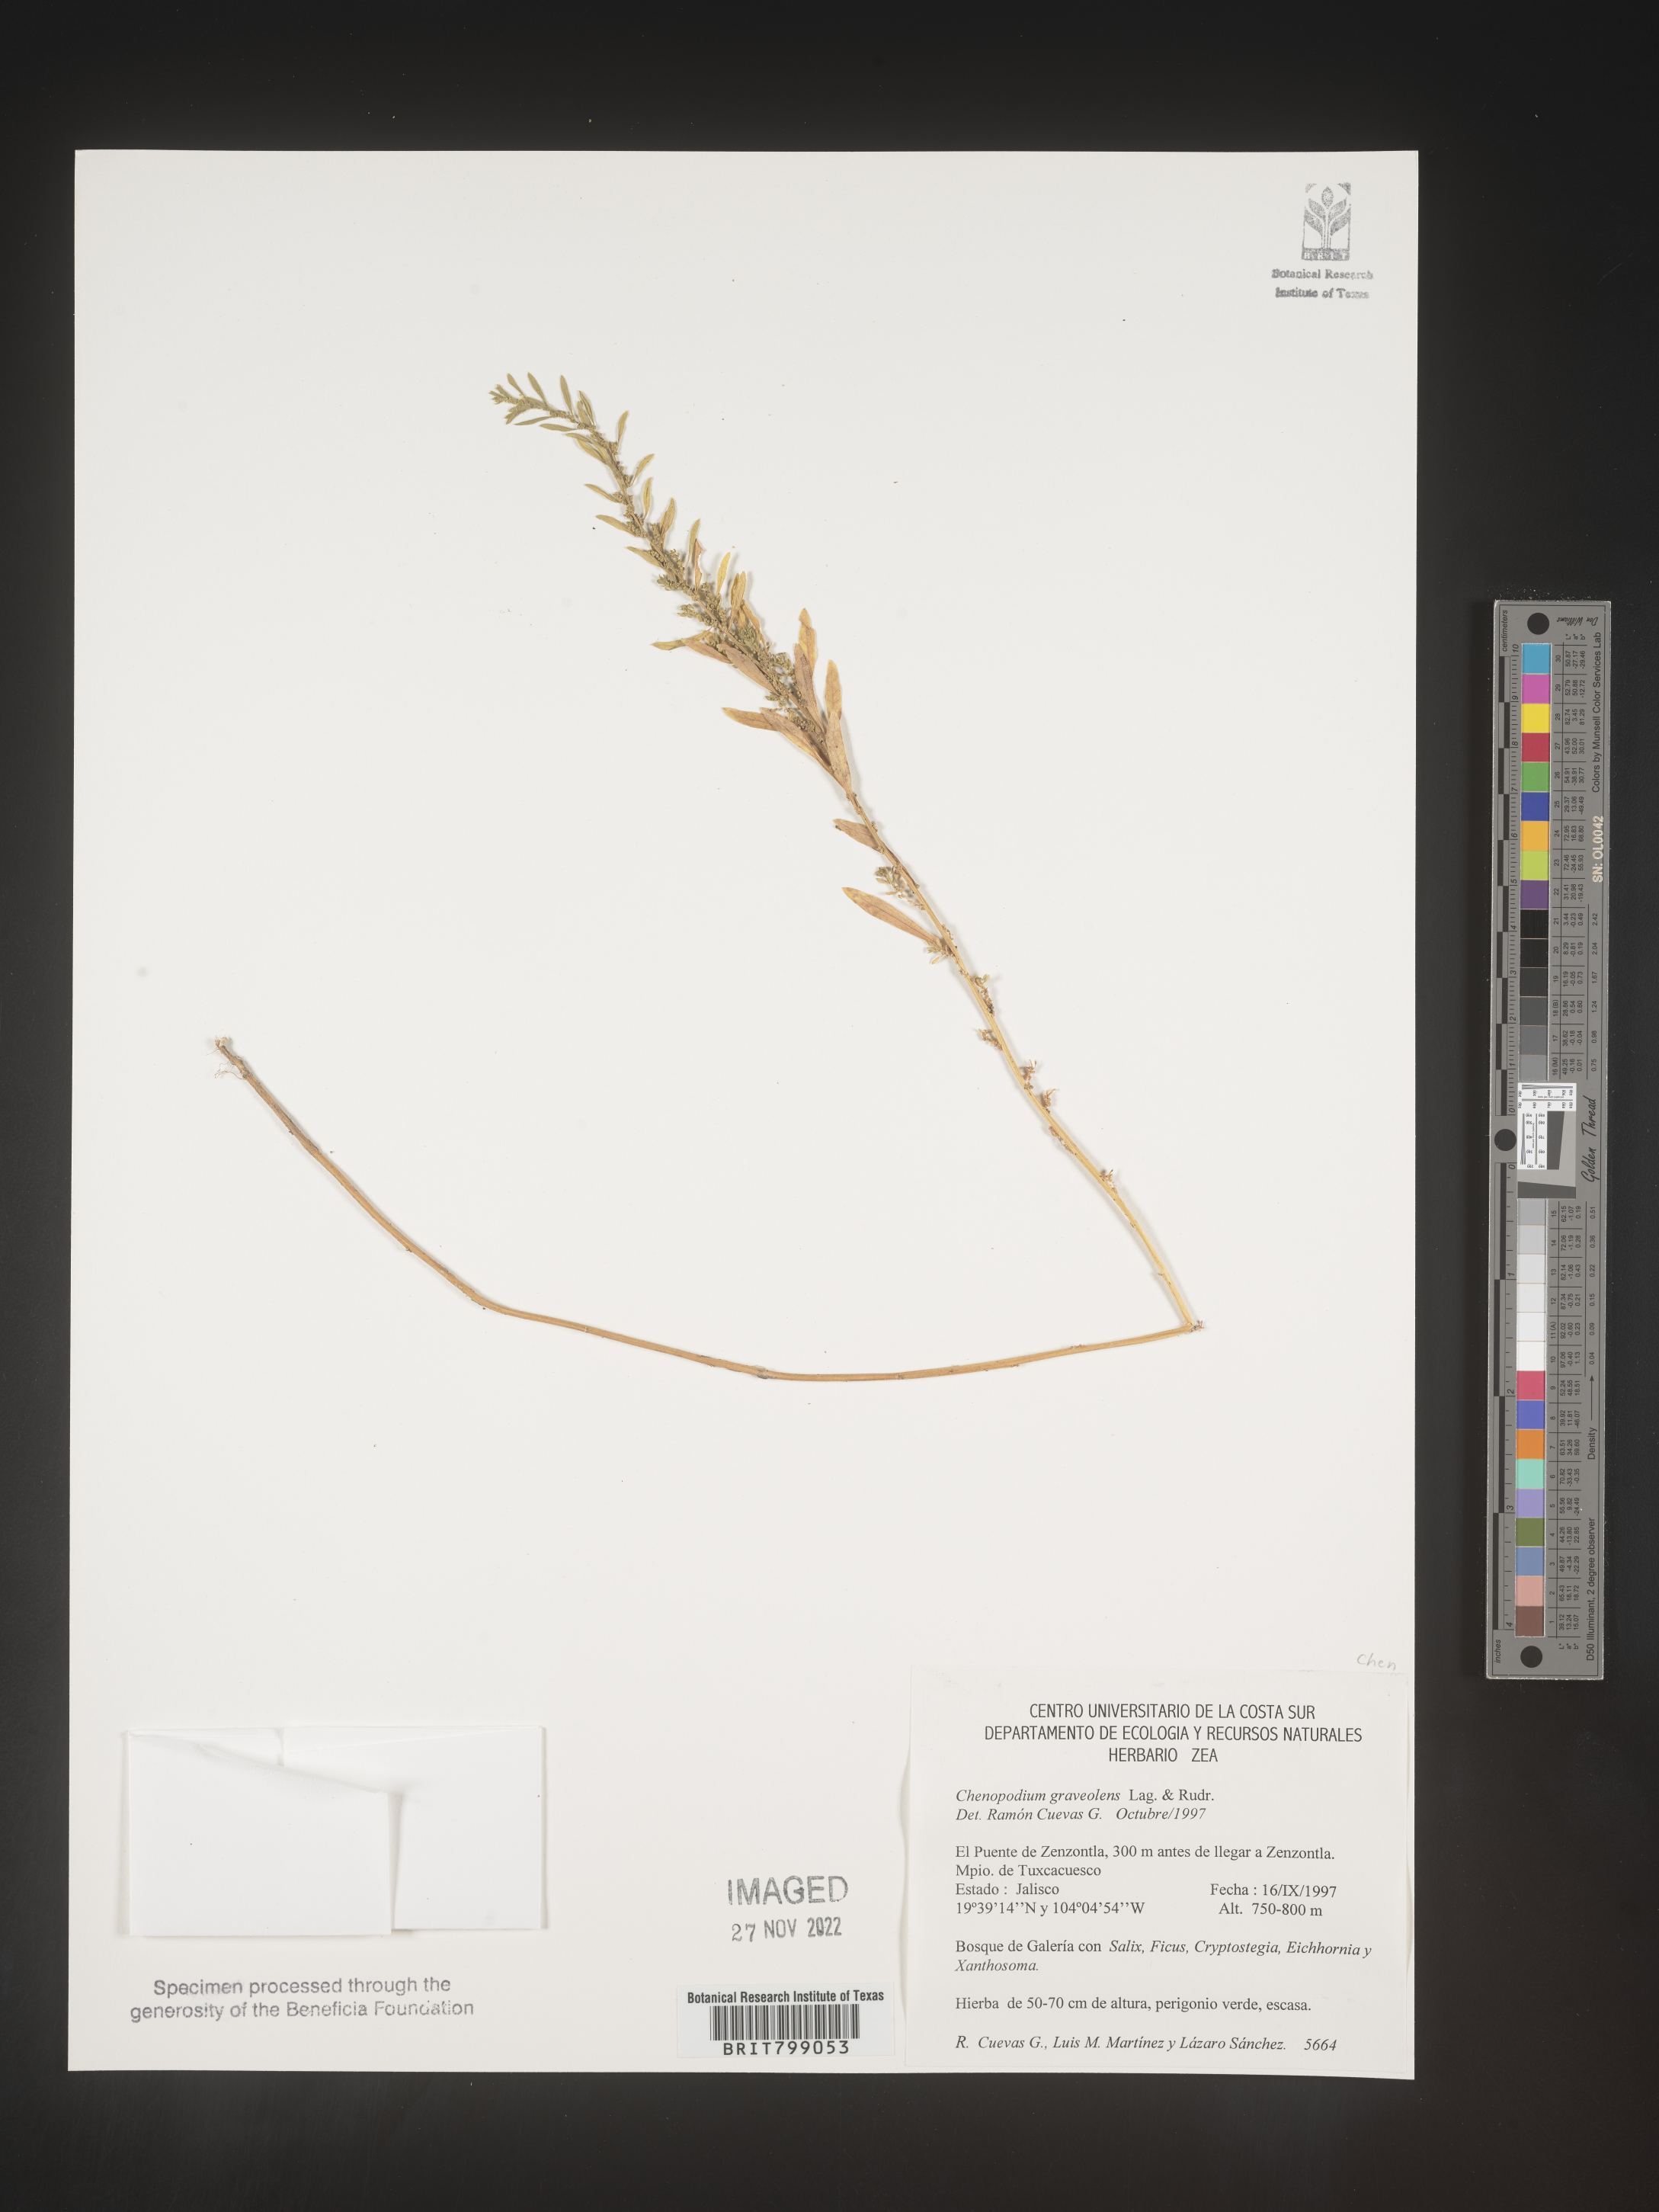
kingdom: Plantae
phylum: Tracheophyta
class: Magnoliopsida
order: Caryophyllales
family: Amaranthaceae
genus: Chenopodium
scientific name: Chenopodium
